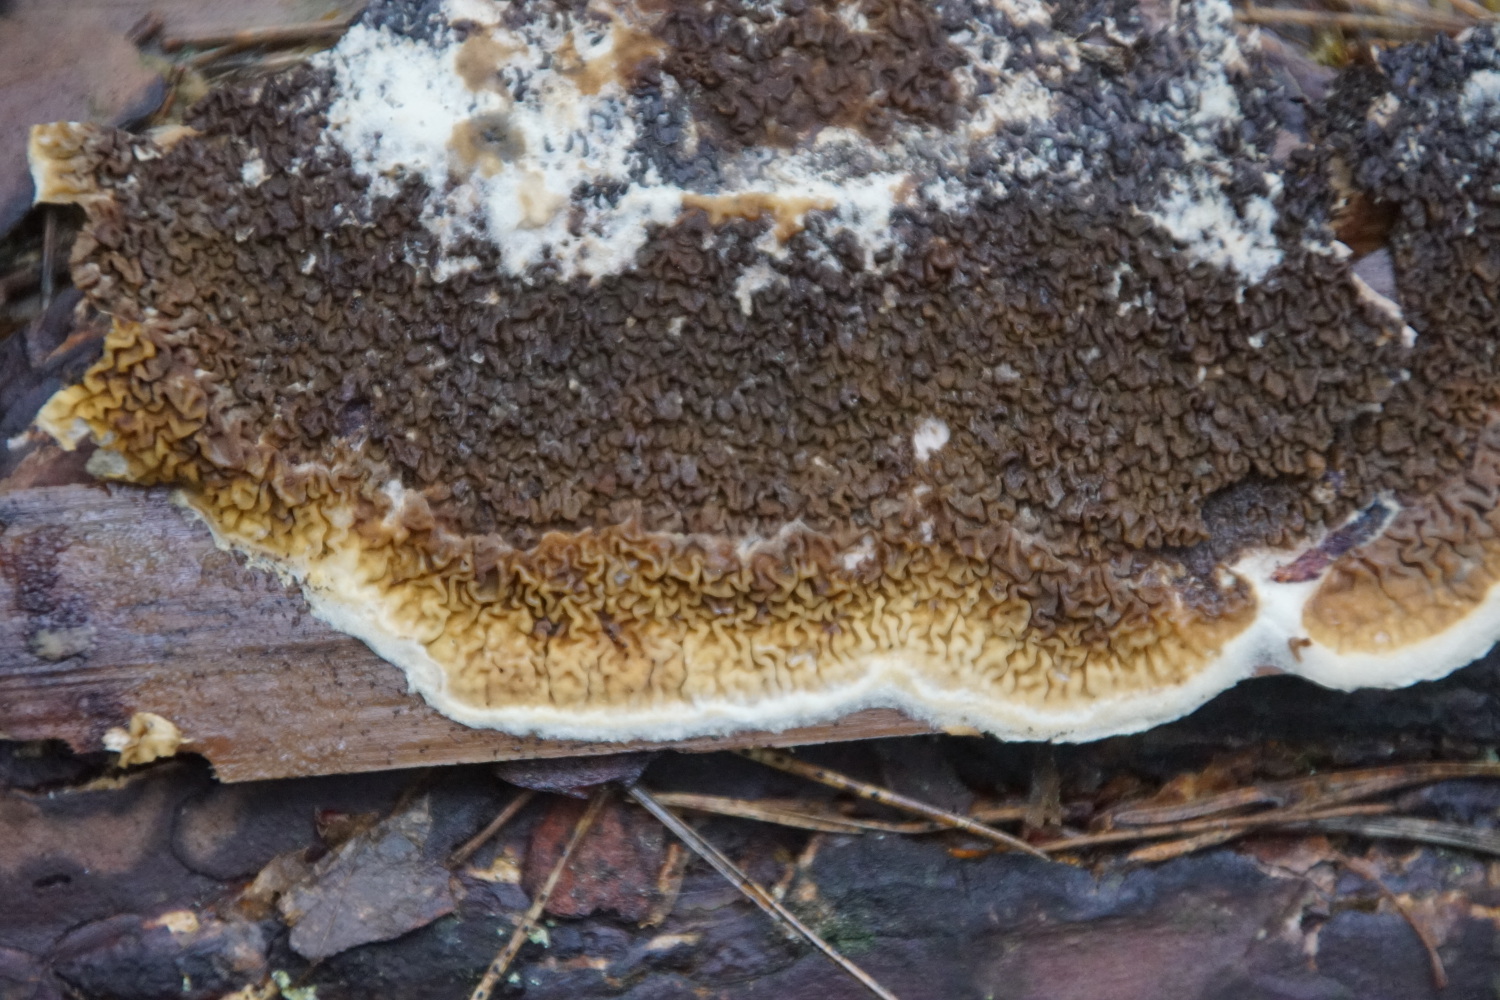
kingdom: Fungi
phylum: Basidiomycota
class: Agaricomycetes
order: Boletales
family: Serpulaceae
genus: Serpula
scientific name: Serpula himantioides
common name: tyndkødet hussvamp
